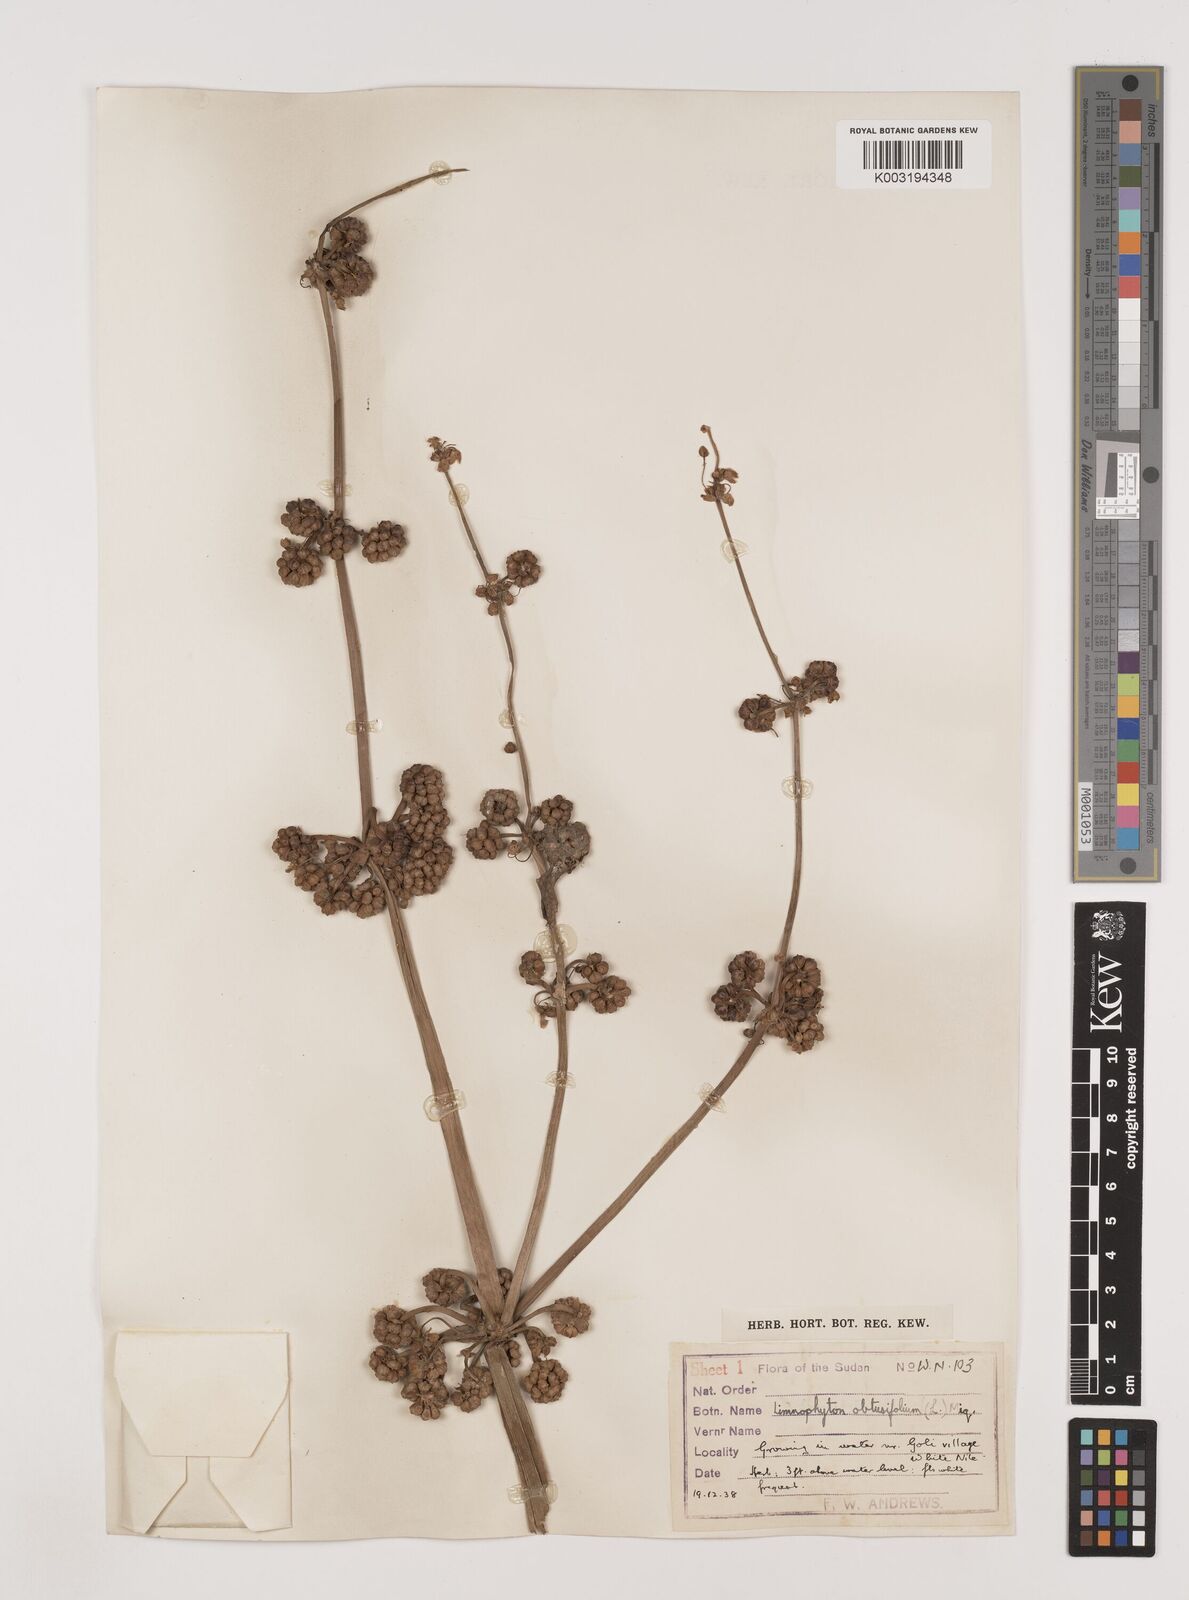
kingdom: Plantae
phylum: Tracheophyta
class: Liliopsida
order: Alismatales
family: Alismataceae
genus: Limnophyton
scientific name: Limnophyton obtusifolium
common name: Arrow head
